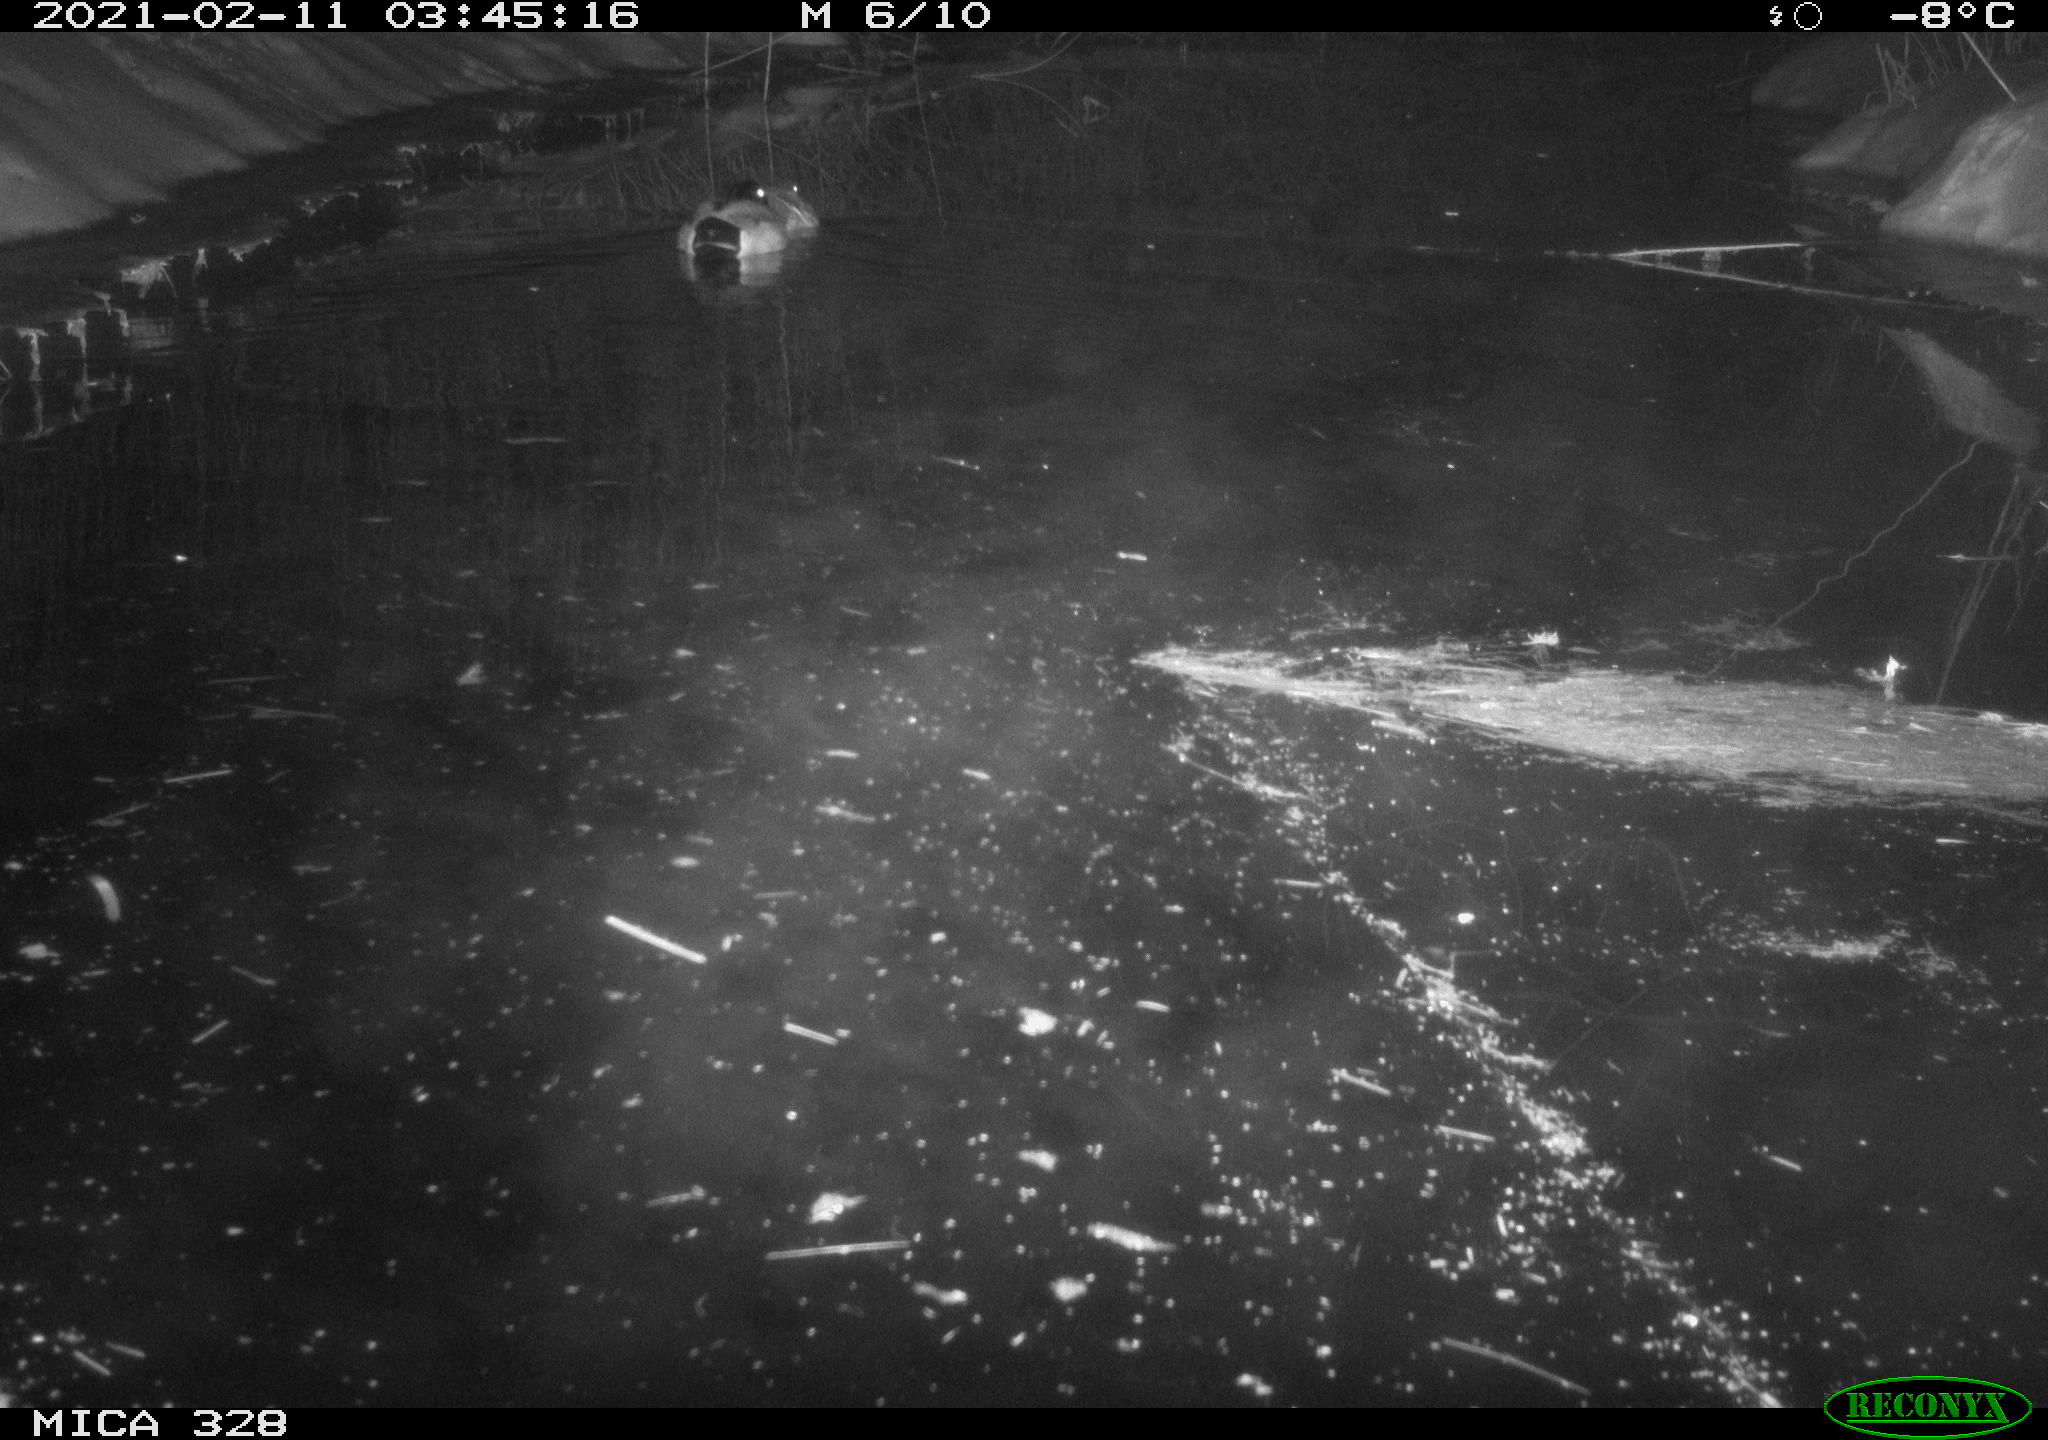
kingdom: Animalia
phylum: Chordata
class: Aves
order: Anseriformes
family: Anatidae
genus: Anas
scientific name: Anas platyrhynchos
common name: Mallard
